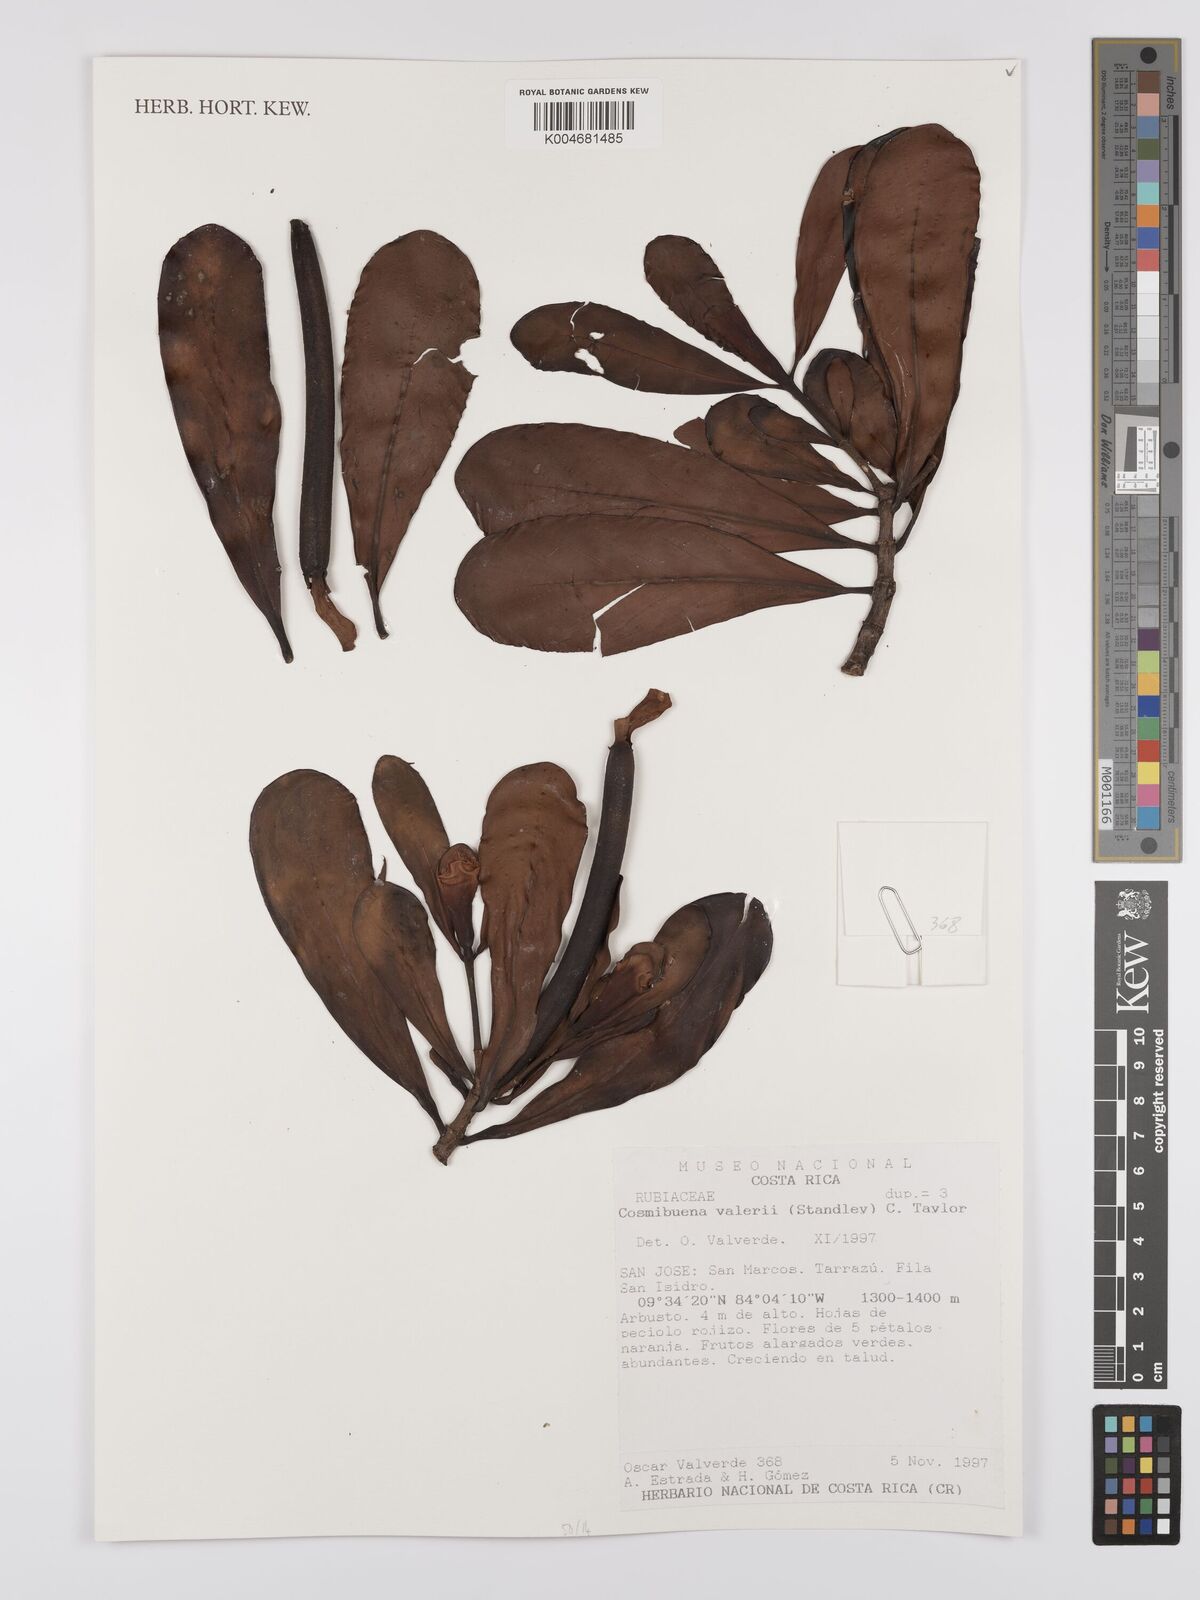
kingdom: Plantae
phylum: Tracheophyta
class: Magnoliopsida
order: Gentianales
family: Rubiaceae
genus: Cosmibuena
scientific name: Cosmibuena valerii
